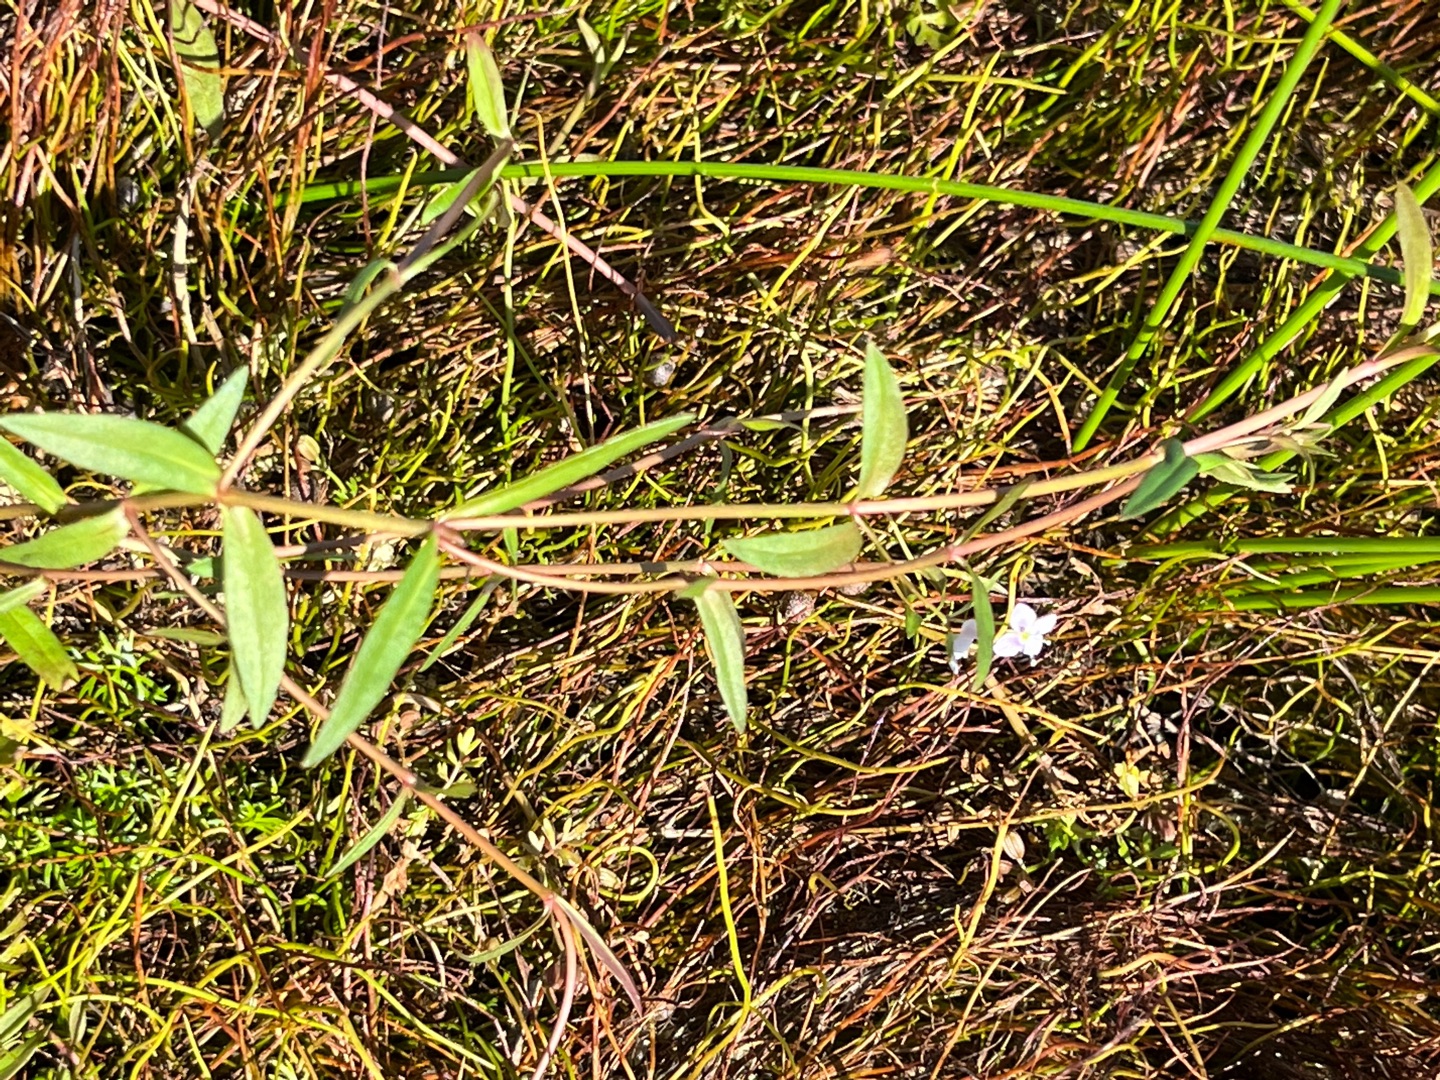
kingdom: Plantae
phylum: Tracheophyta
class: Magnoliopsida
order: Lamiales
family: Plantaginaceae
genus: Veronica
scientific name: Veronica scutellata
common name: Smalbladet ærenpris
